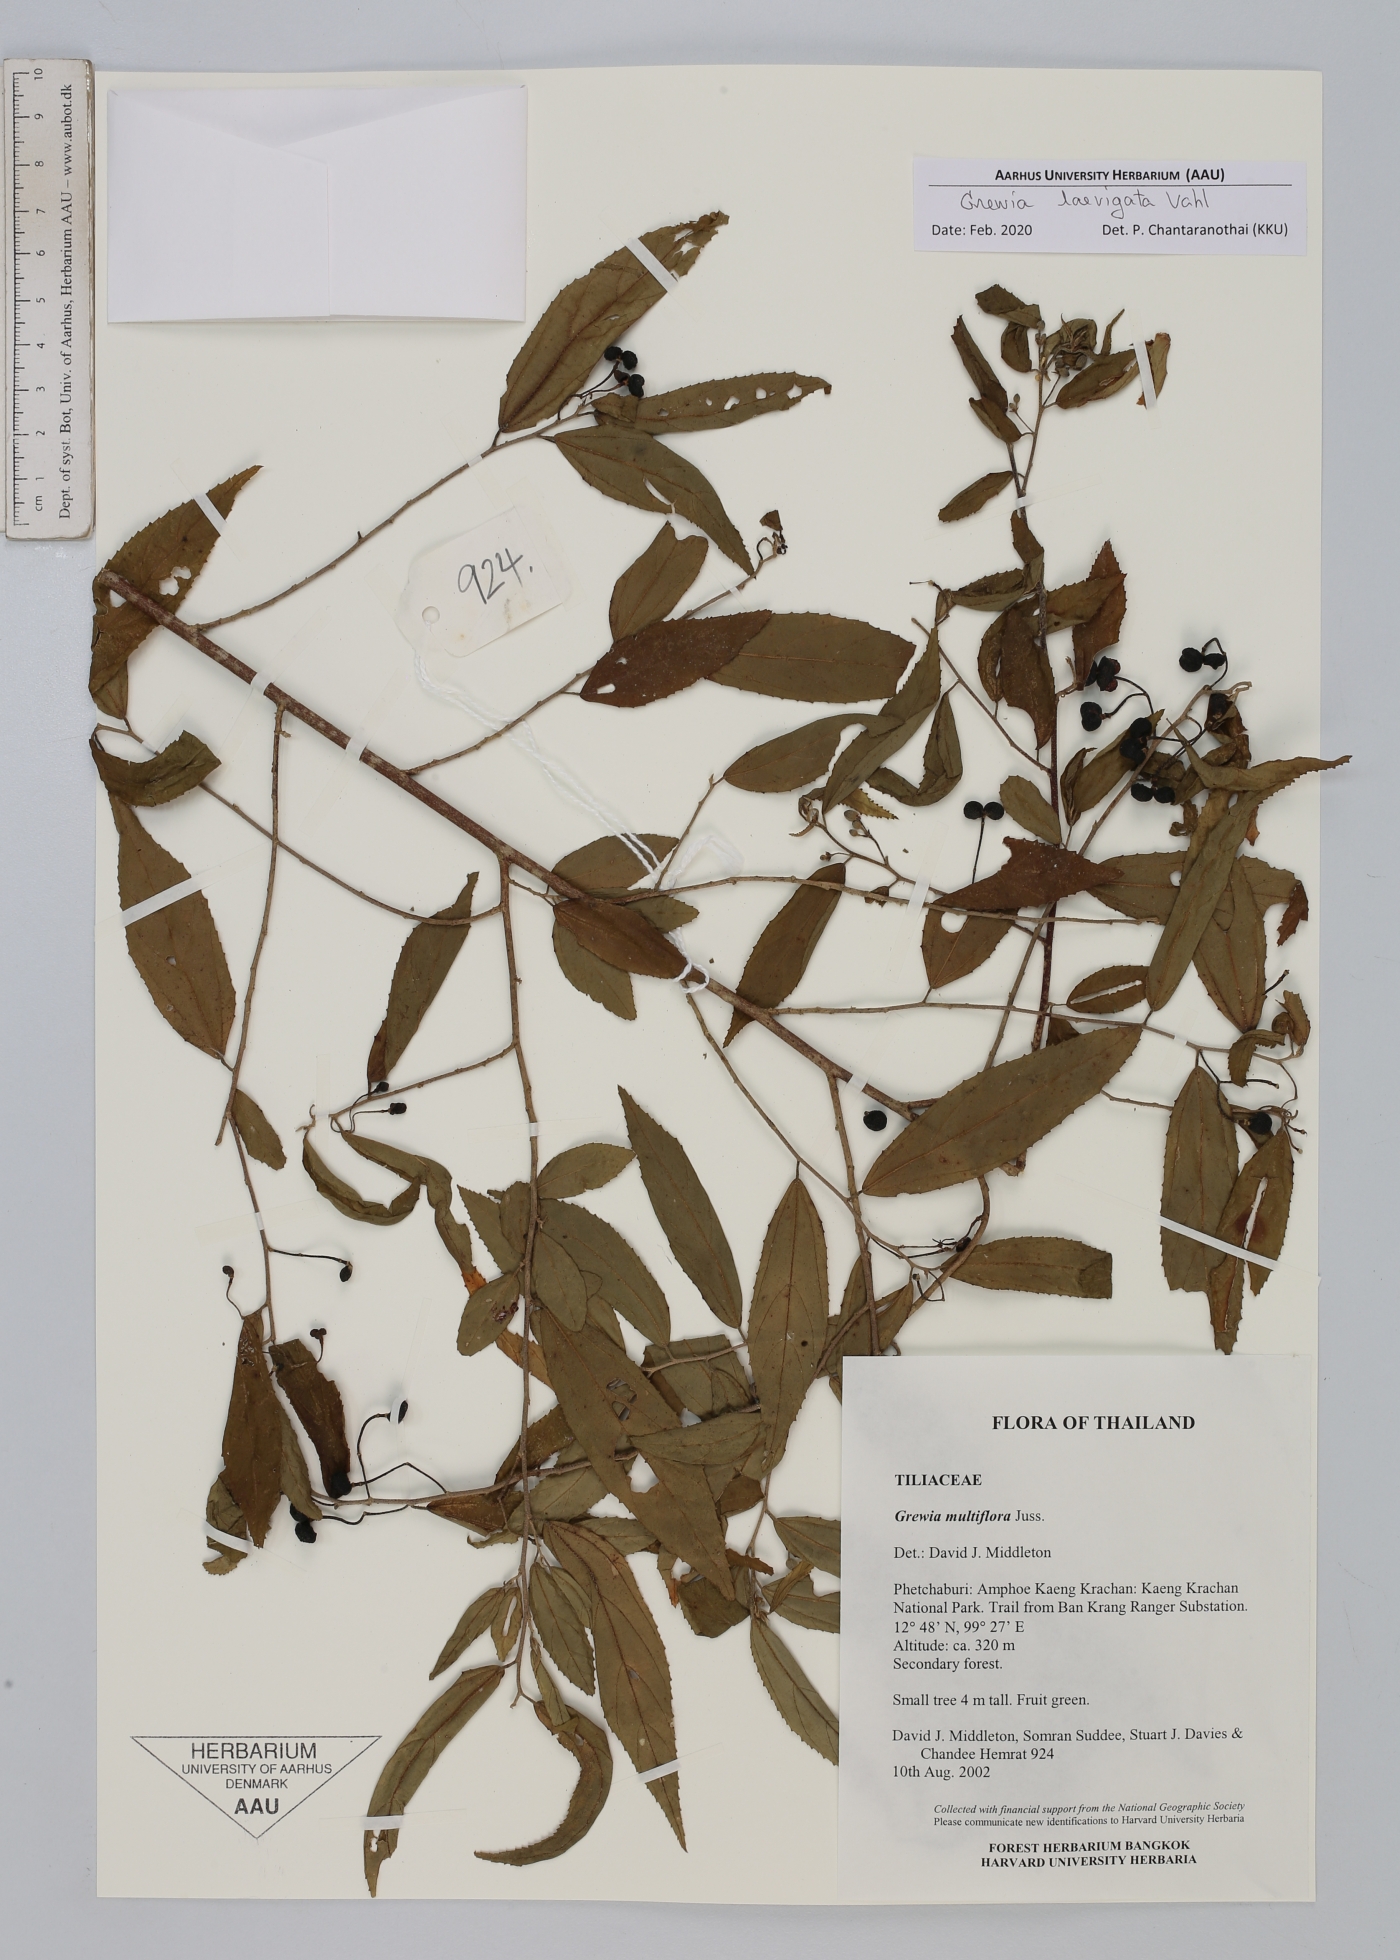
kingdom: Plantae
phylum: Tracheophyta
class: Magnoliopsida
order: Malvales
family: Malvaceae
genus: Grewia
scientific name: Grewia laevigata
